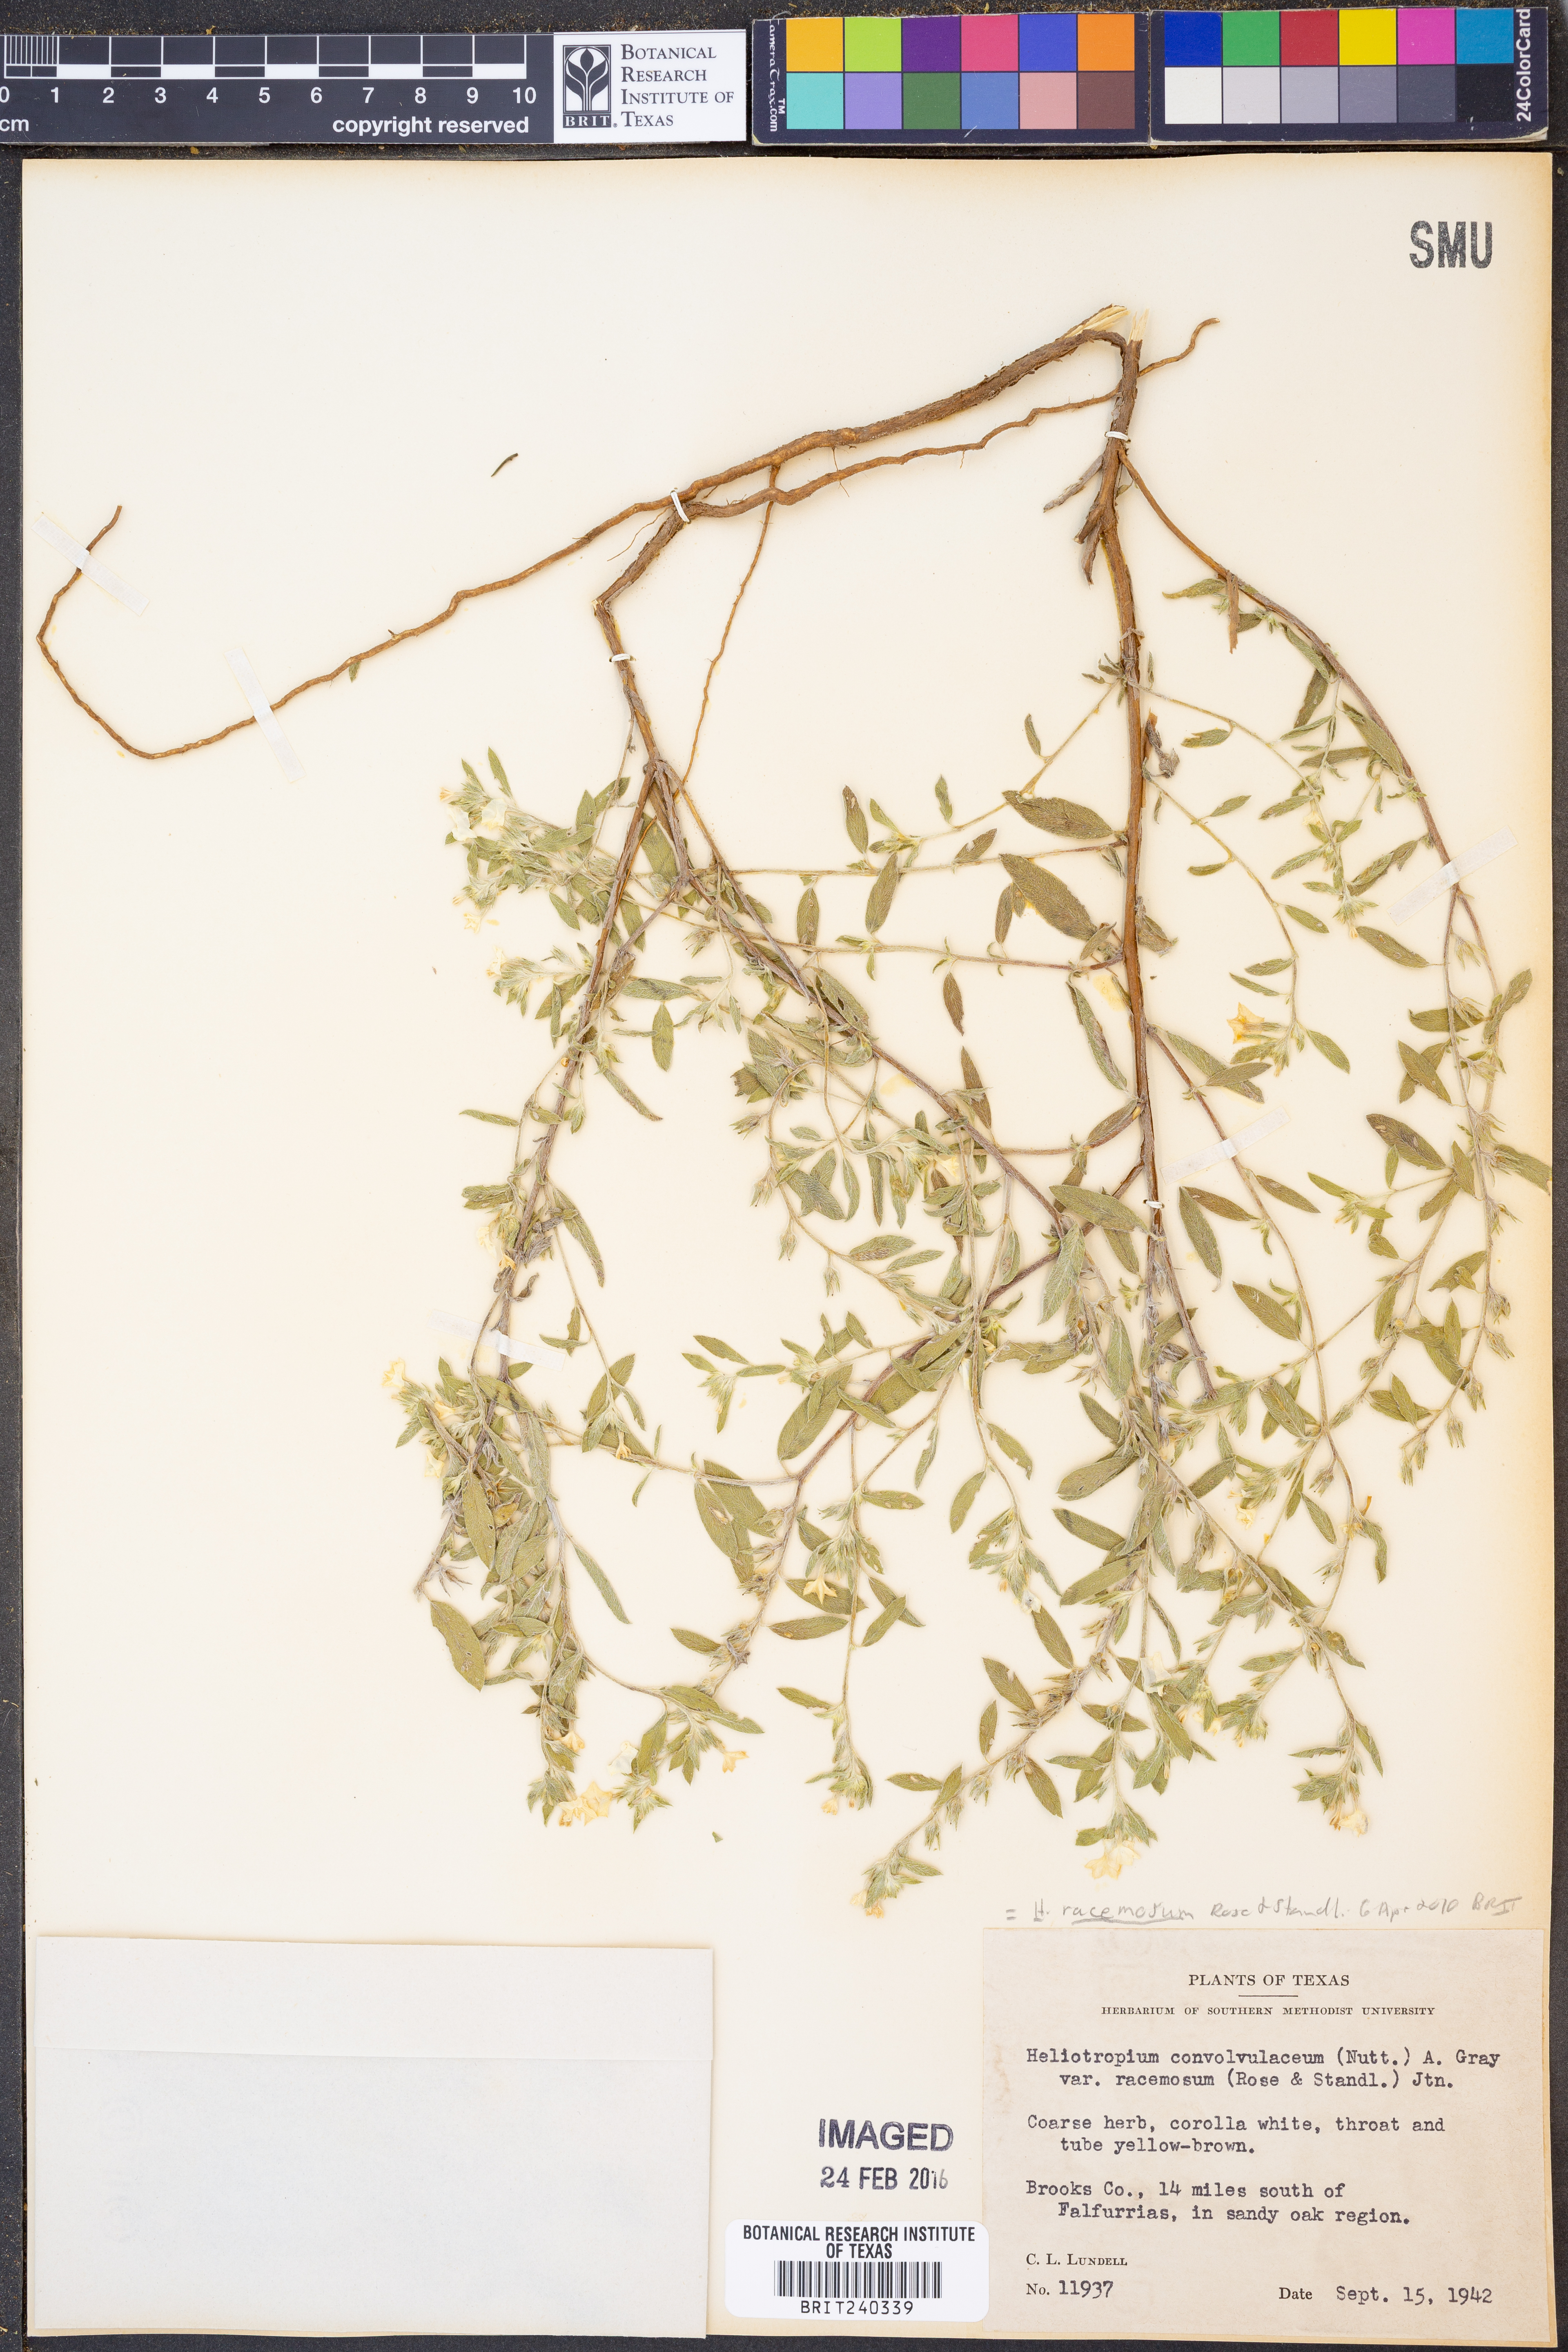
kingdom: Plantae
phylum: Tracheophyta
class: Magnoliopsida
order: Boraginales
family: Heliotropiaceae
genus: Heliotropium
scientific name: Heliotropium racemosum
